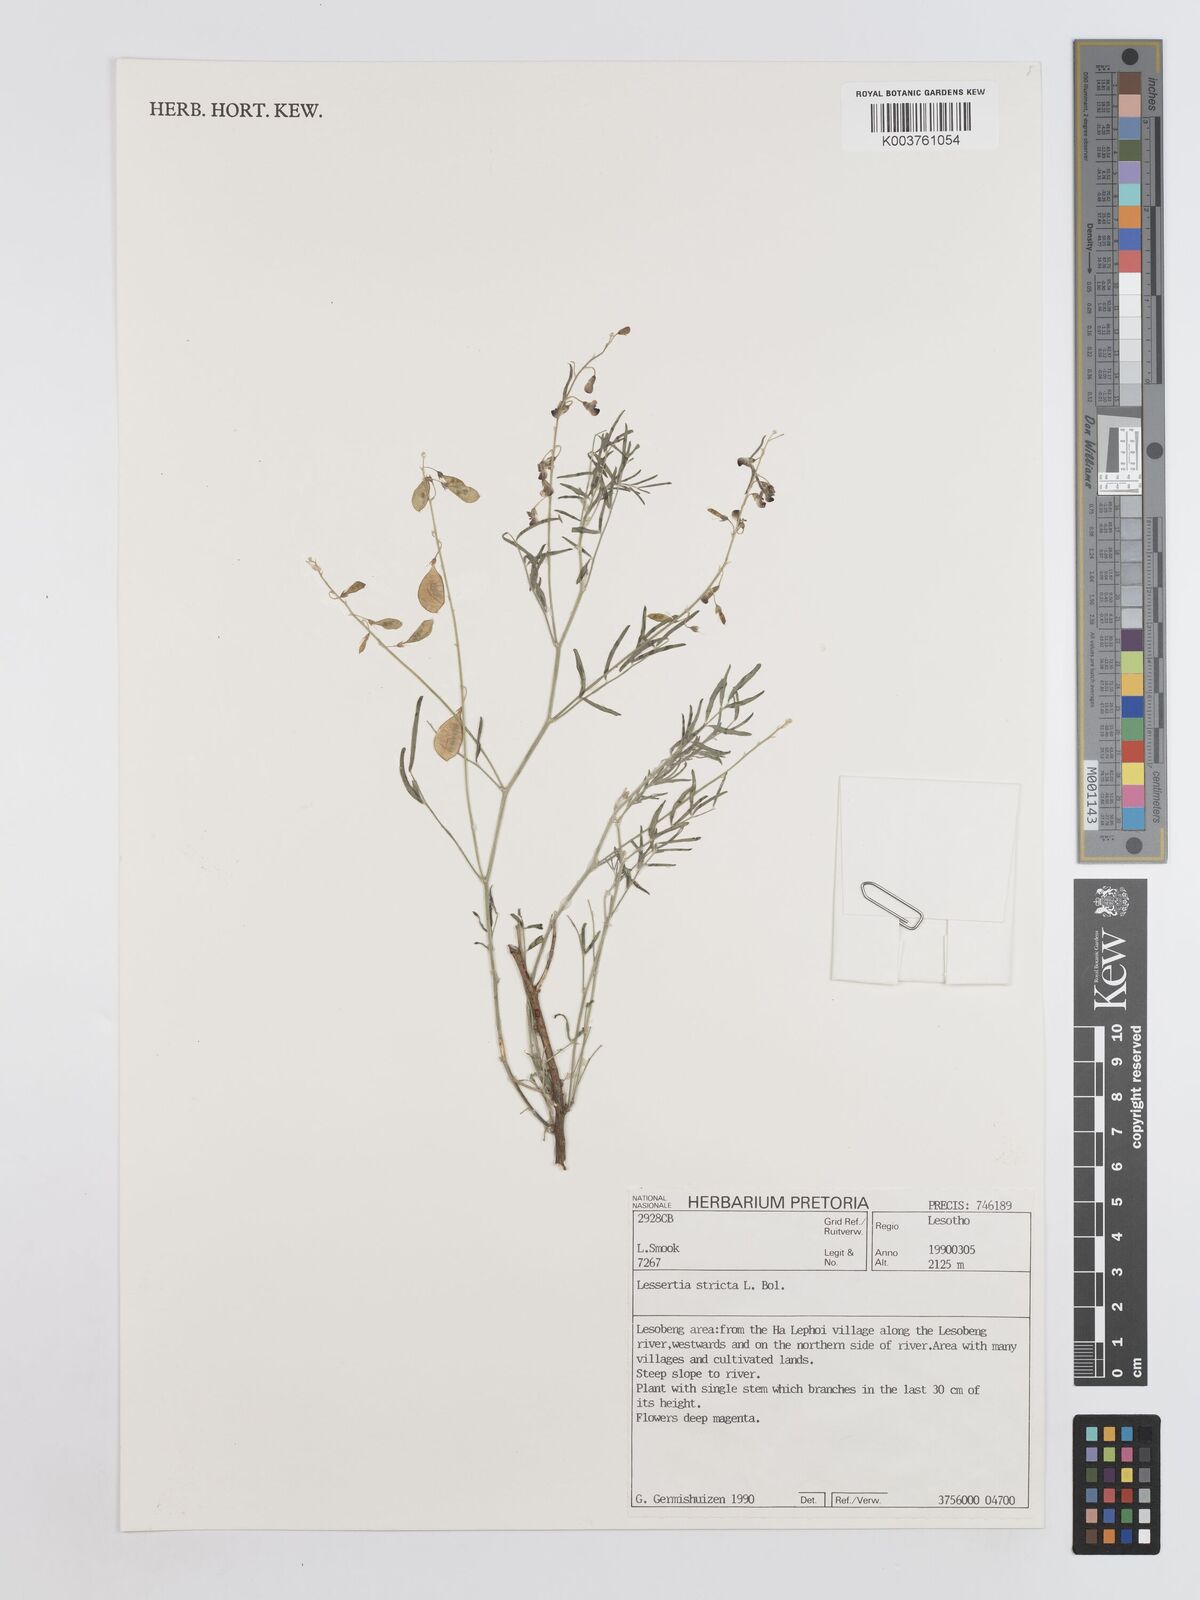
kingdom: Plantae
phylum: Tracheophyta
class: Magnoliopsida
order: Fabales
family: Fabaceae
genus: Lessertia
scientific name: Lessertia stricta
